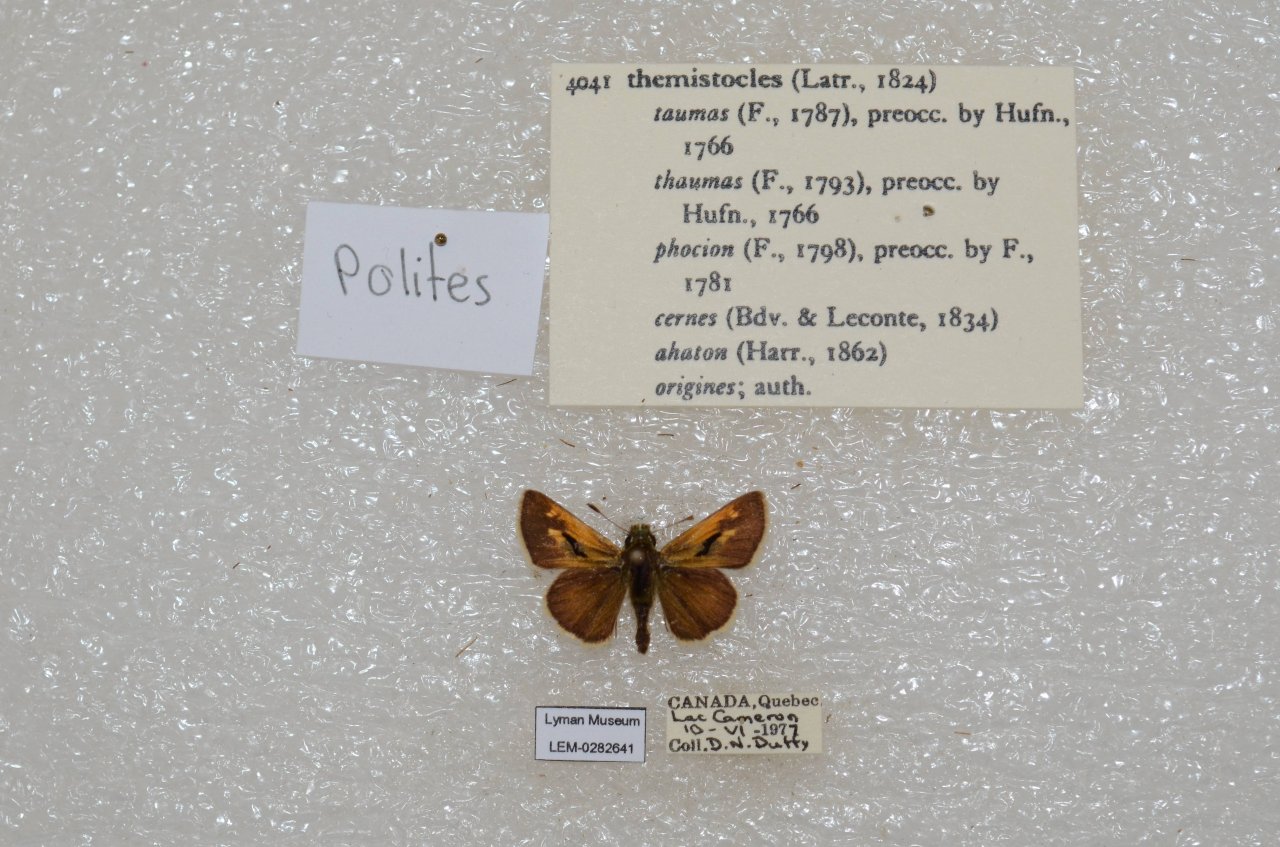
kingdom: Animalia
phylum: Arthropoda
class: Insecta
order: Lepidoptera
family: Hesperiidae
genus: Polites
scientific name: Polites themistocles
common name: Tawny-edged Skipper
